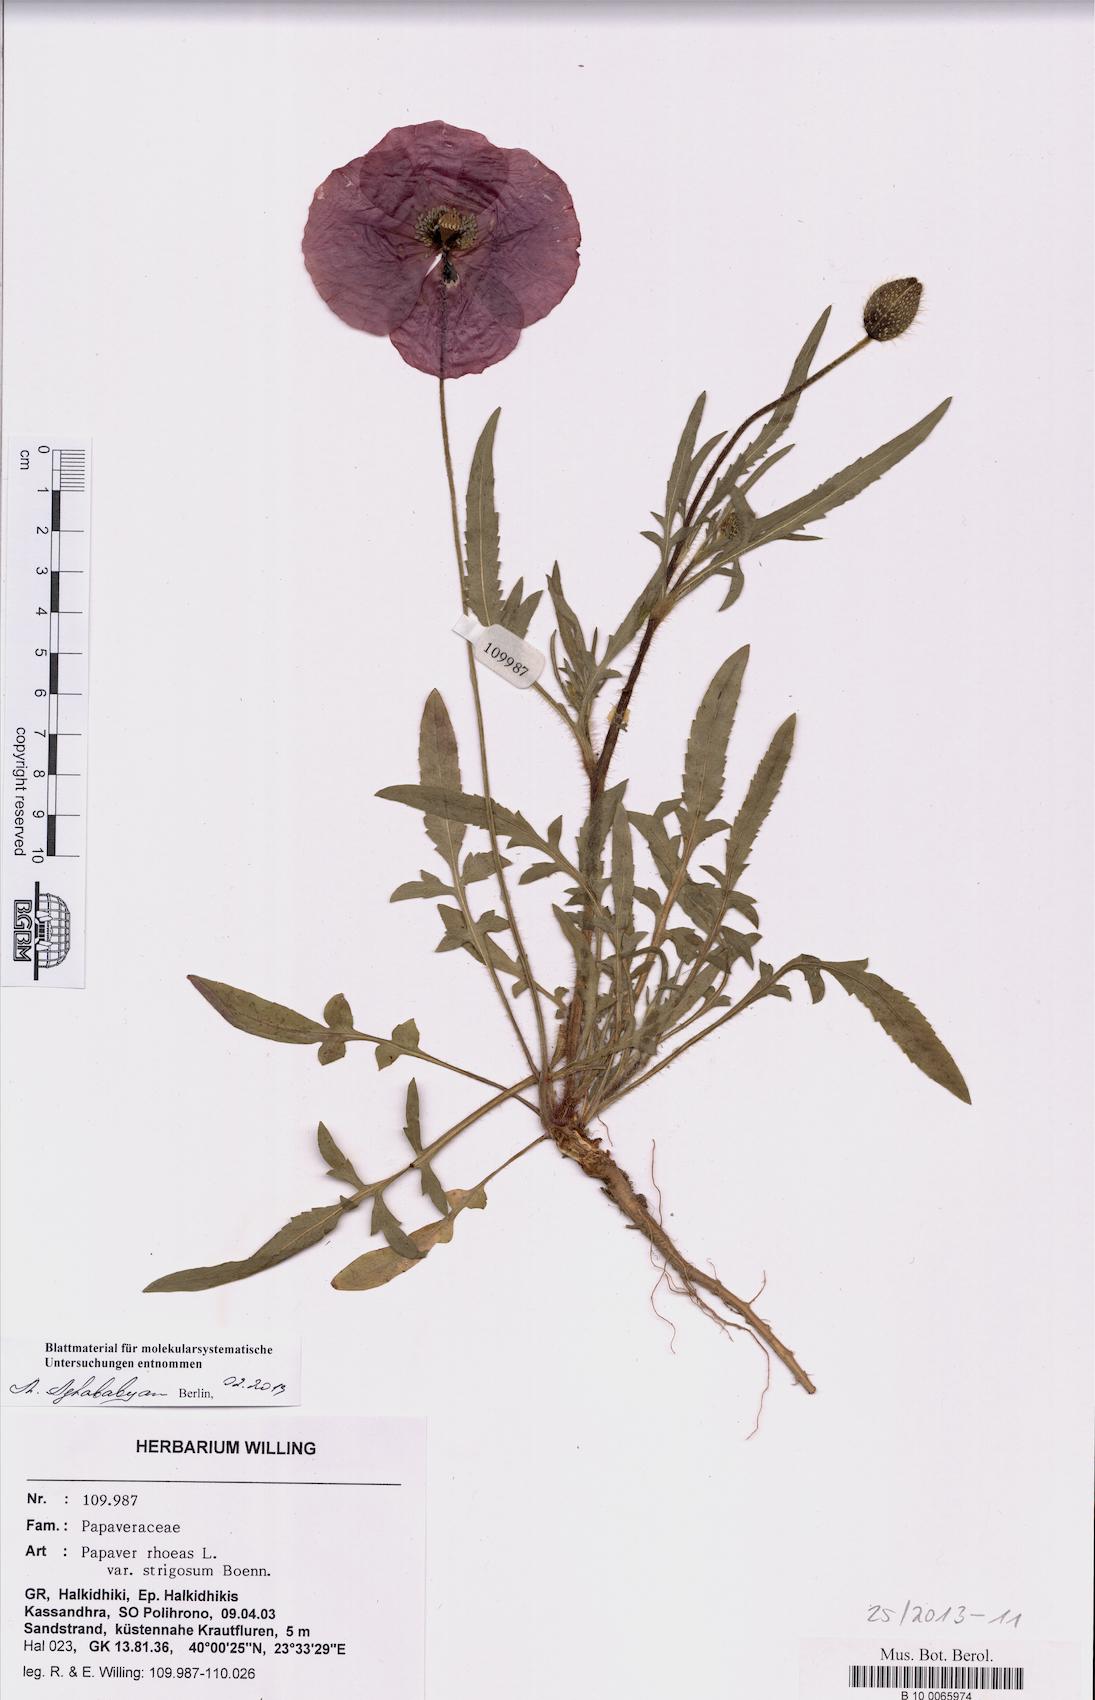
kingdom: Plantae
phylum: Tracheophyta
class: Magnoliopsida
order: Ranunculales
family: Papaveraceae
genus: Papaver
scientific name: Papaver rhoeas
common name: Corn poppy
